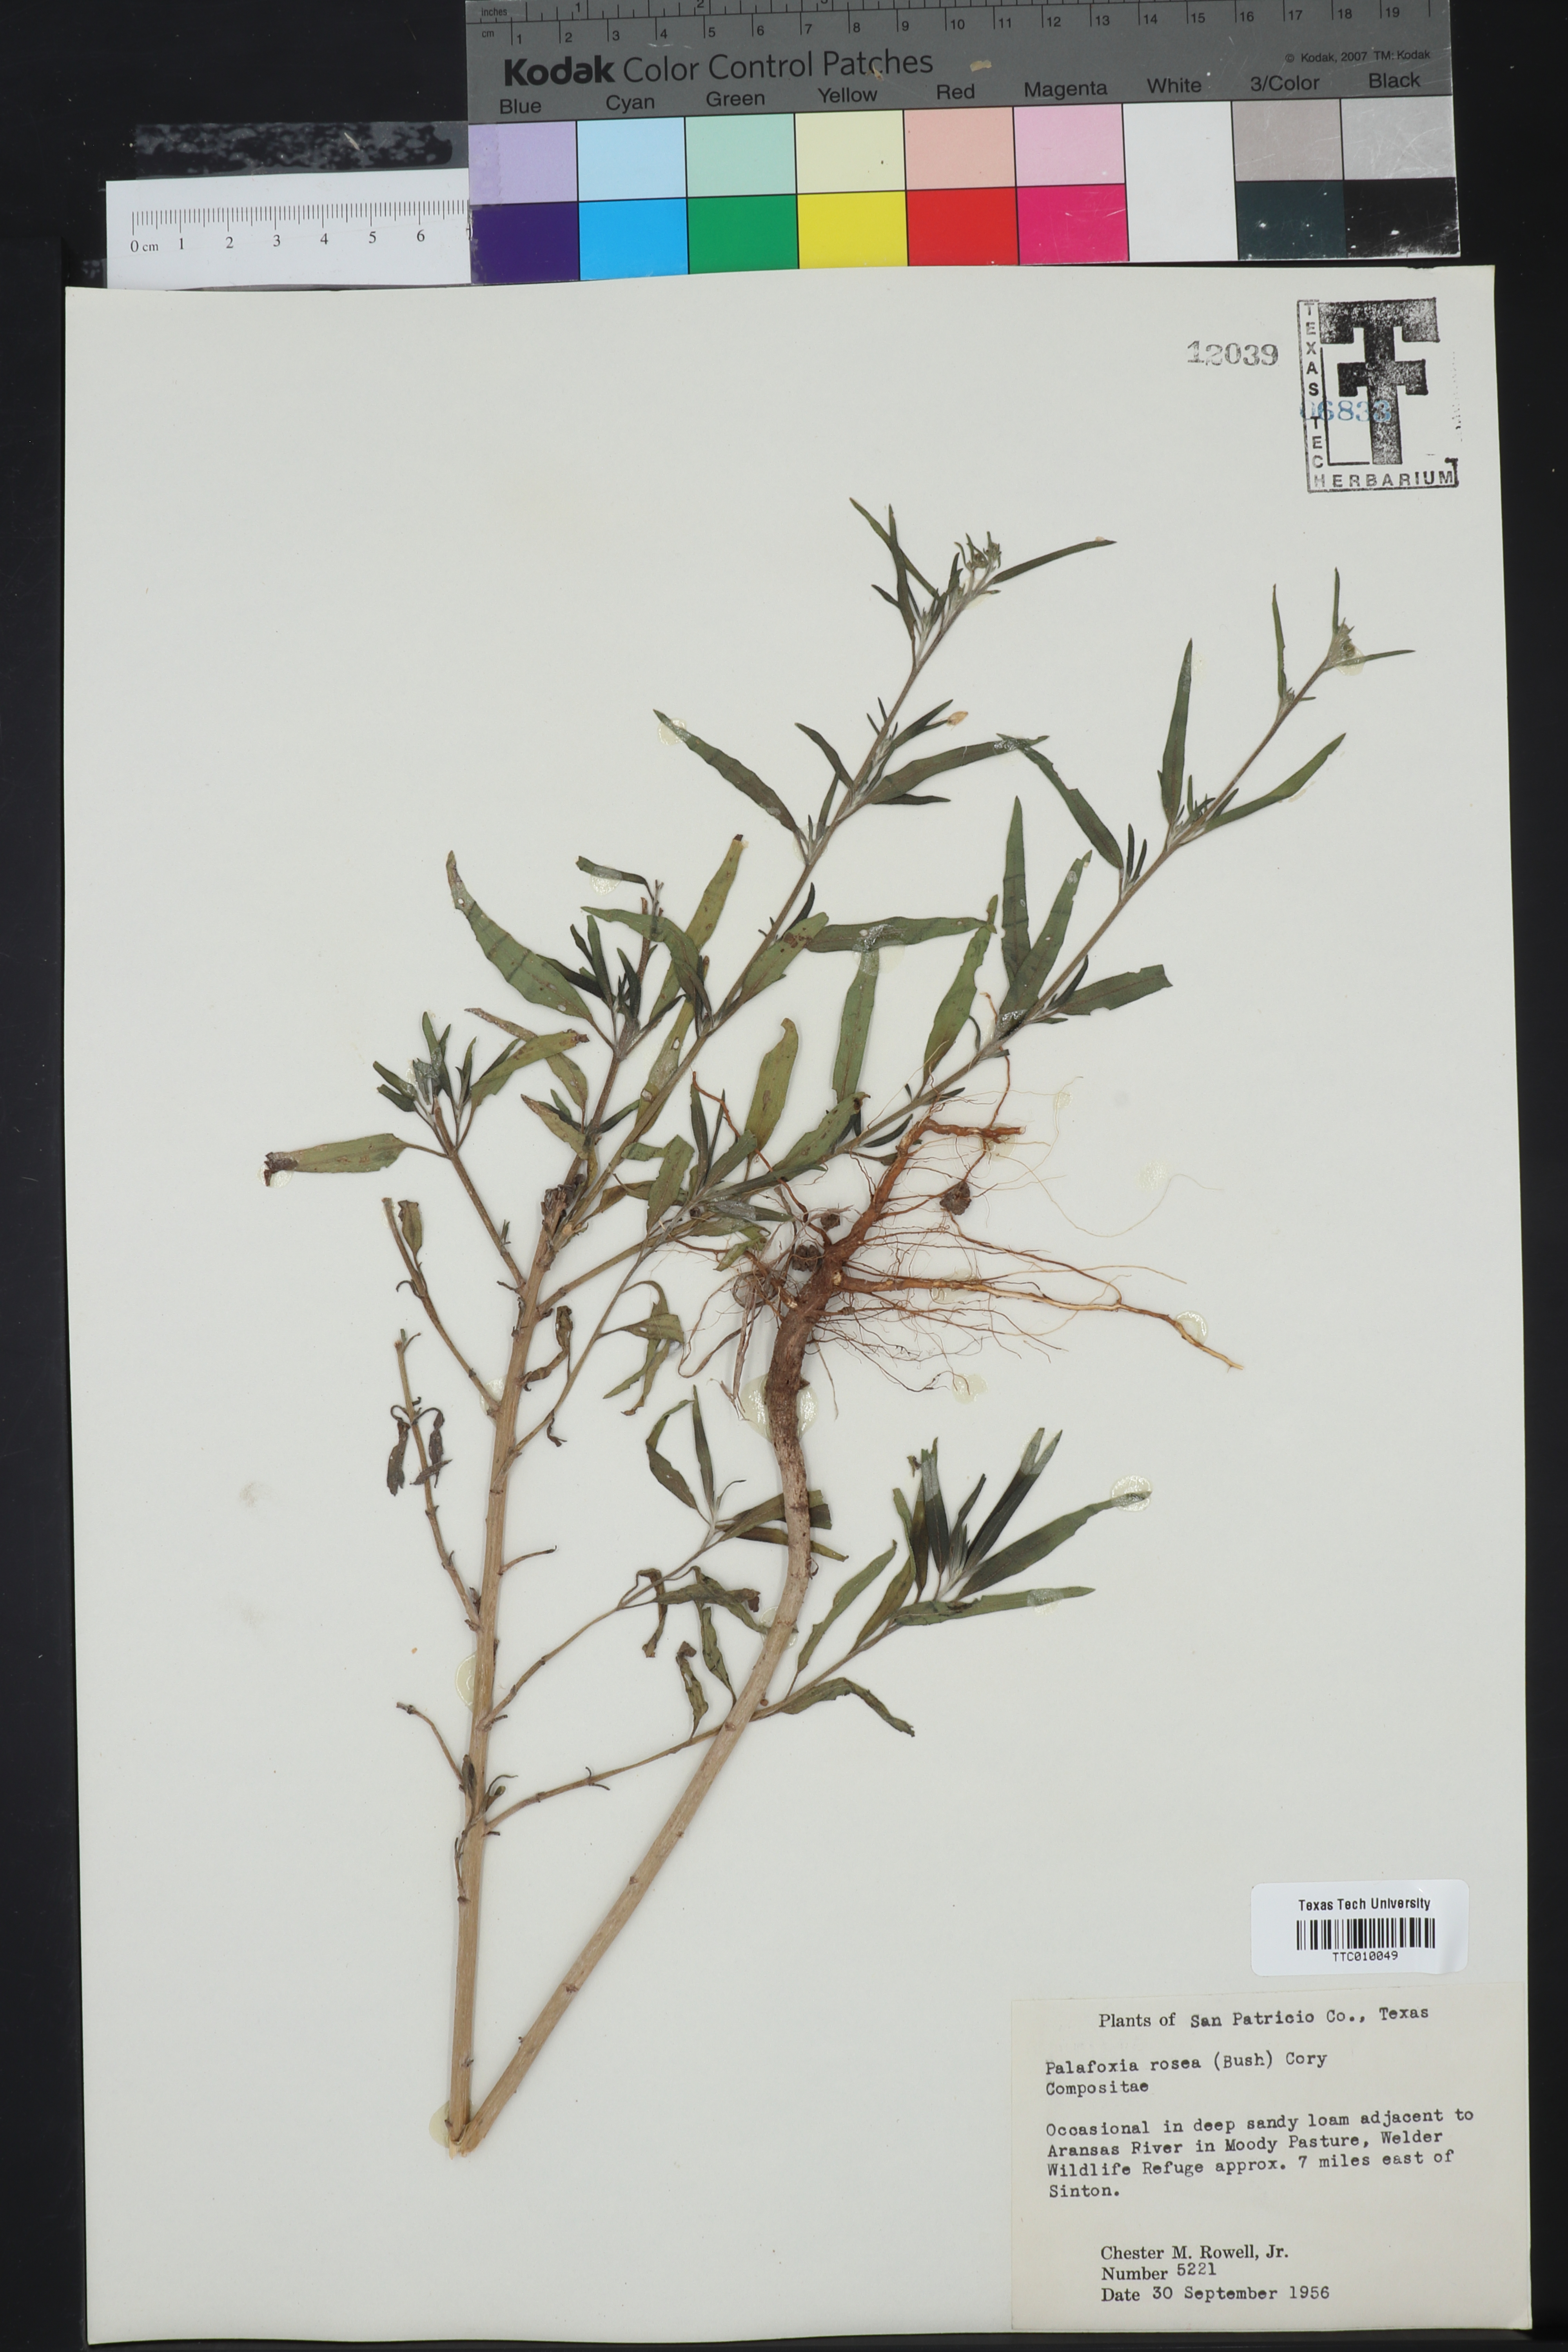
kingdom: Plantae
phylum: Tracheophyta
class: Magnoliopsida
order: Asterales
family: Asteraceae
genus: Palafoxia
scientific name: Palafoxia rosea
